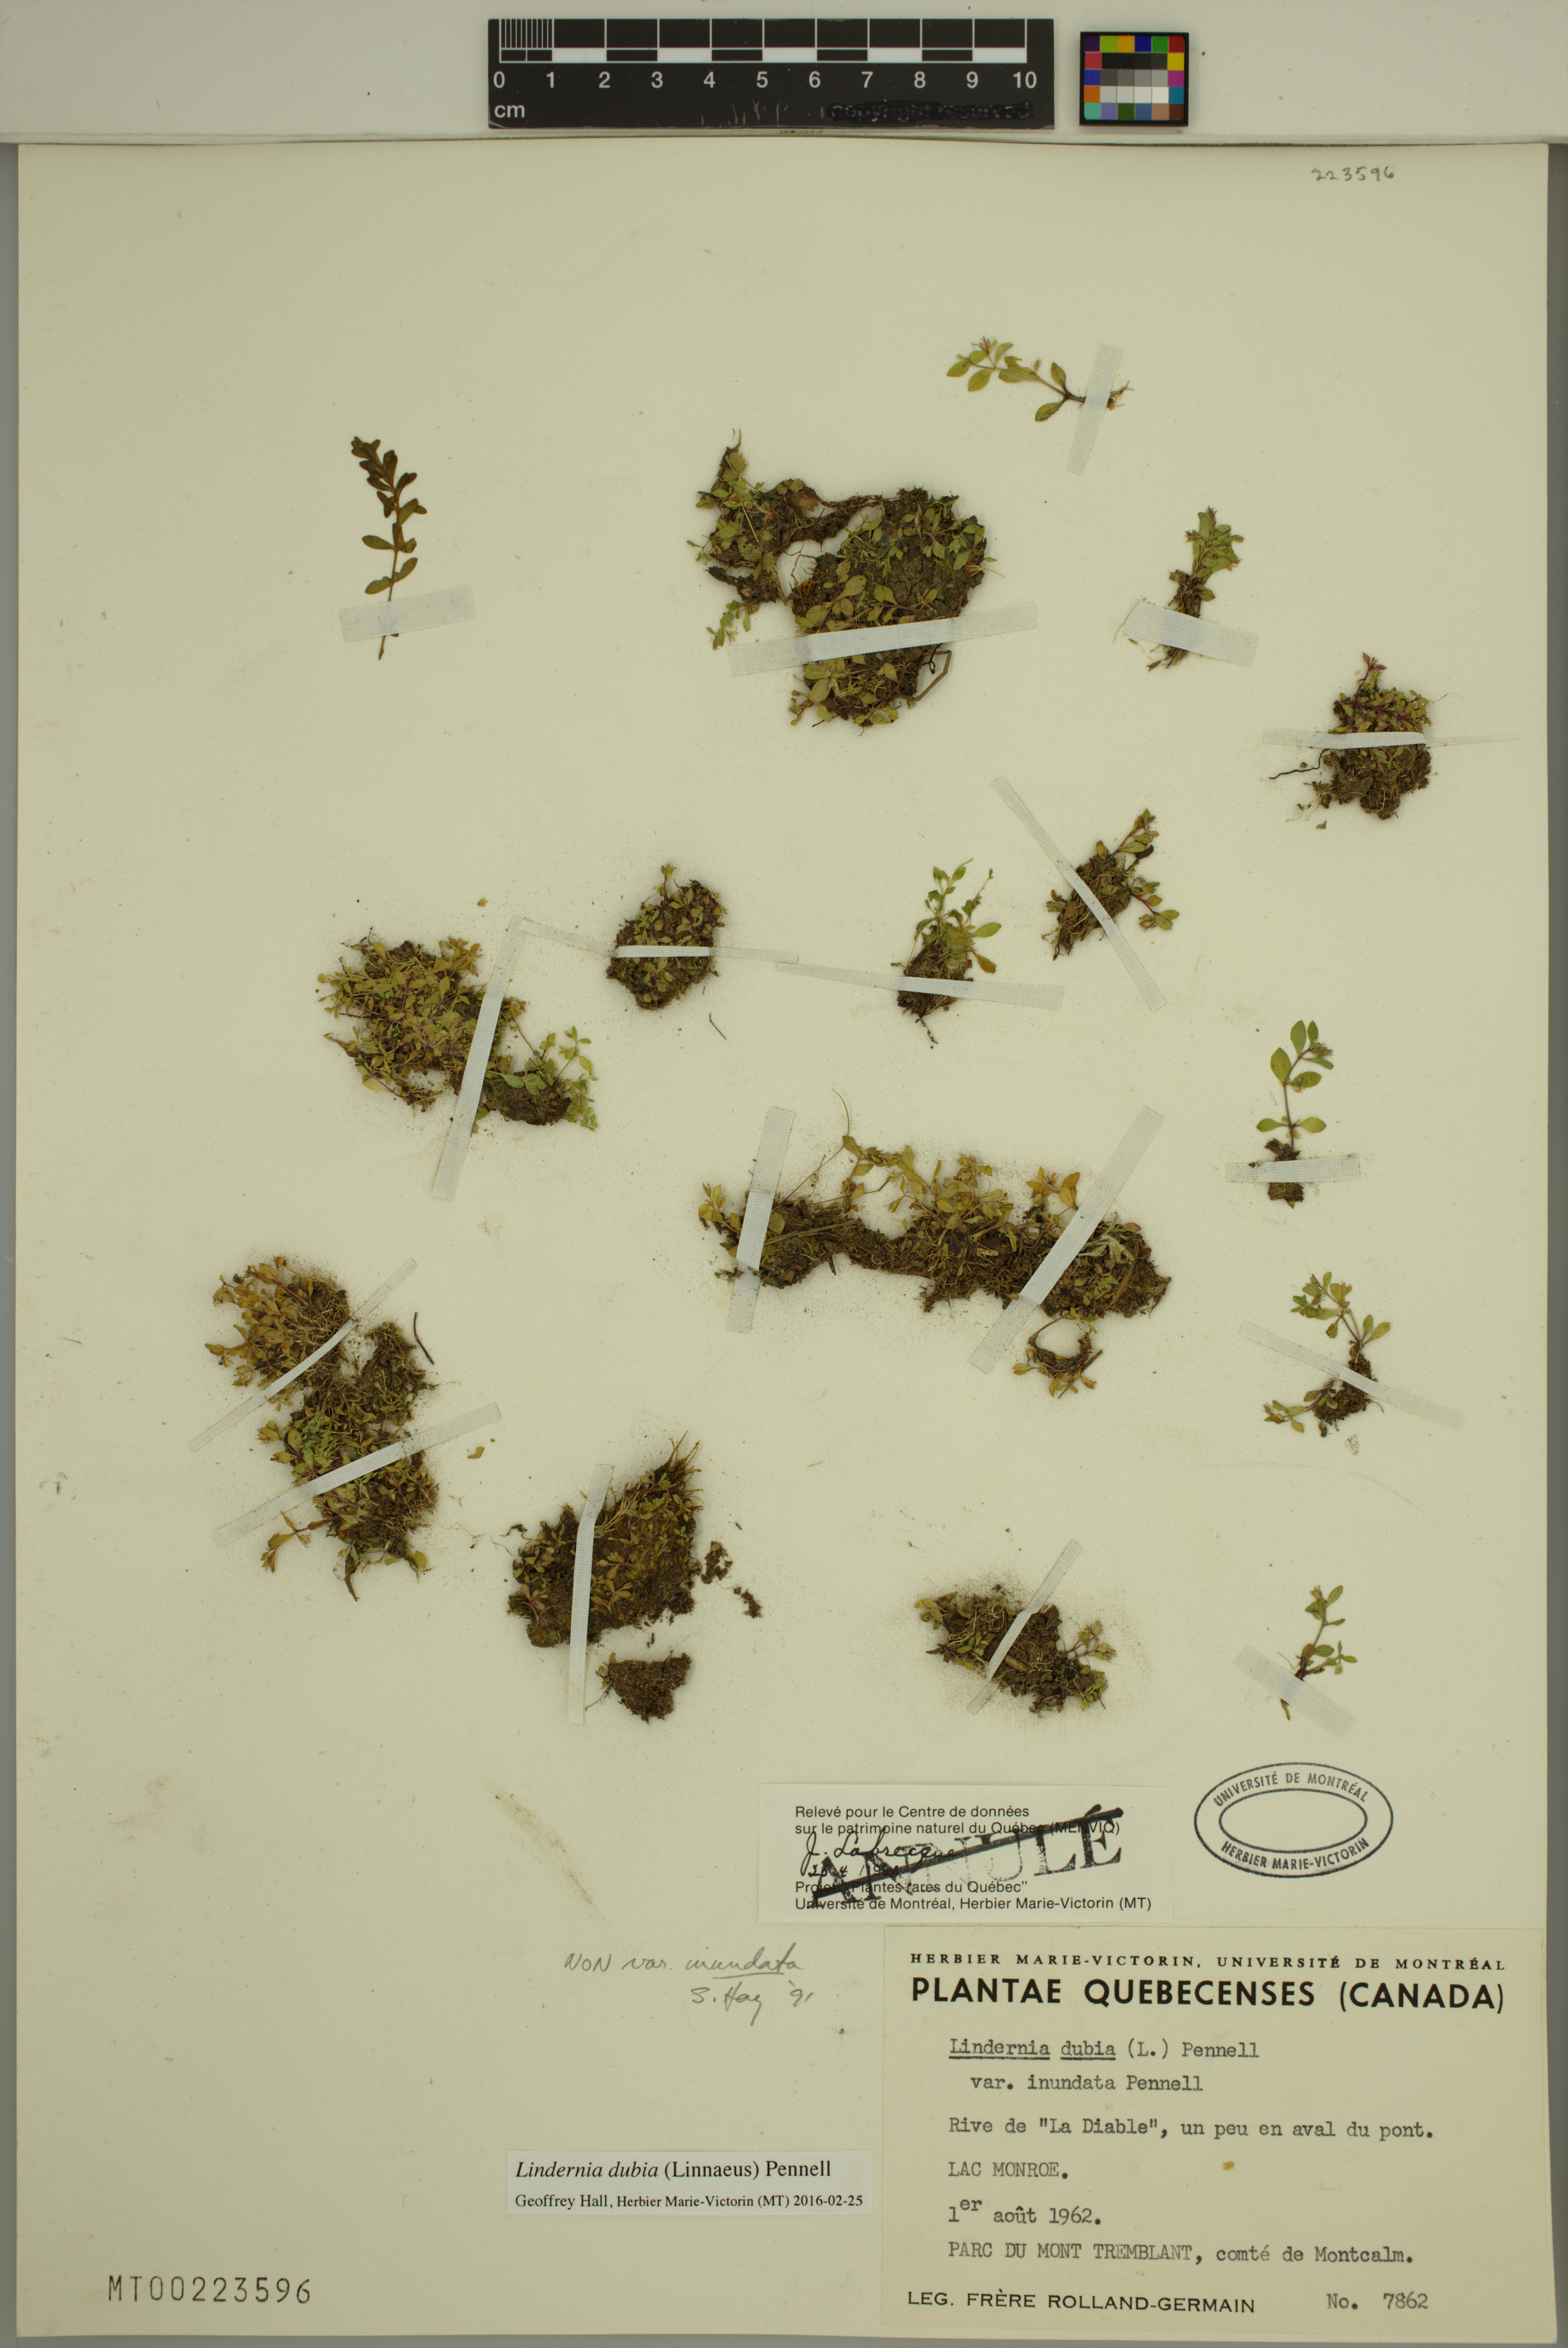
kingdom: Plantae
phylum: Tracheophyta
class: Magnoliopsida
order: Lamiales
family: Linderniaceae
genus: Lindernia
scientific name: Lindernia dubia
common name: Annual false pimpernel
